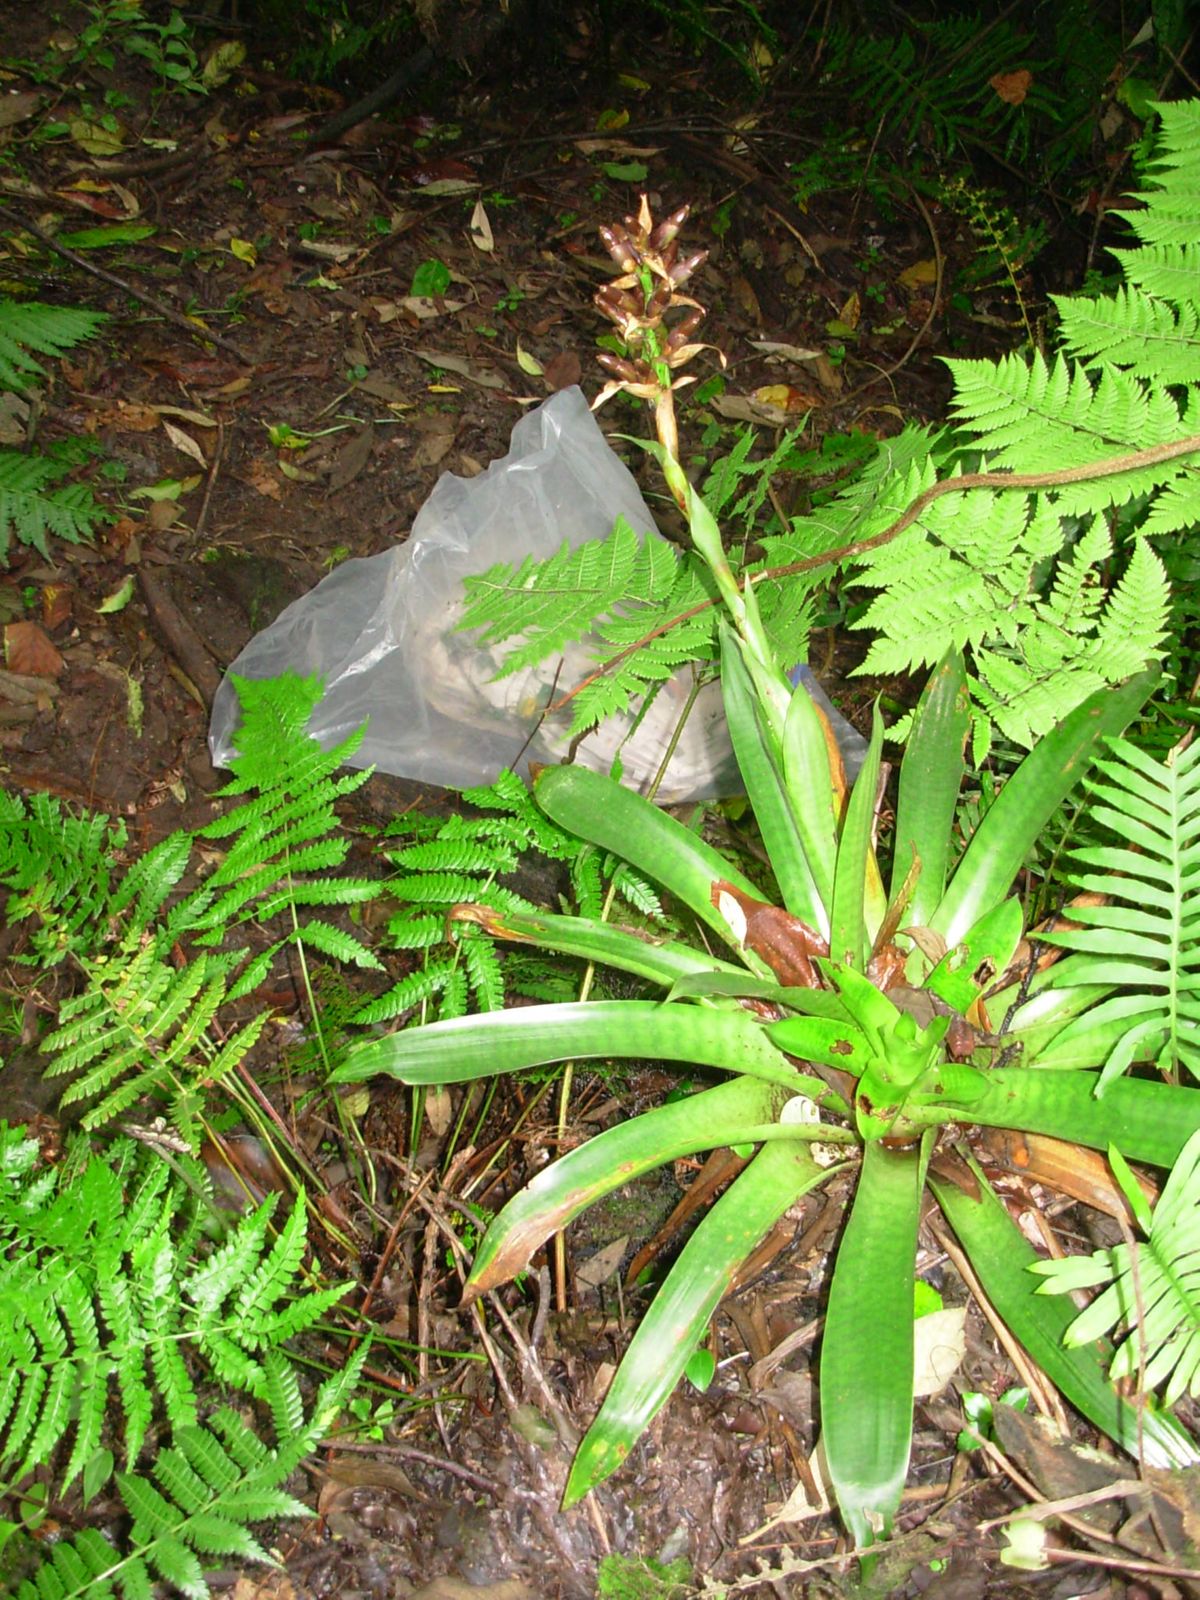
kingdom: Plantae
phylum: Tracheophyta
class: Liliopsida
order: Poales
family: Bromeliaceae
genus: Tillandsia
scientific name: Tillandsia
